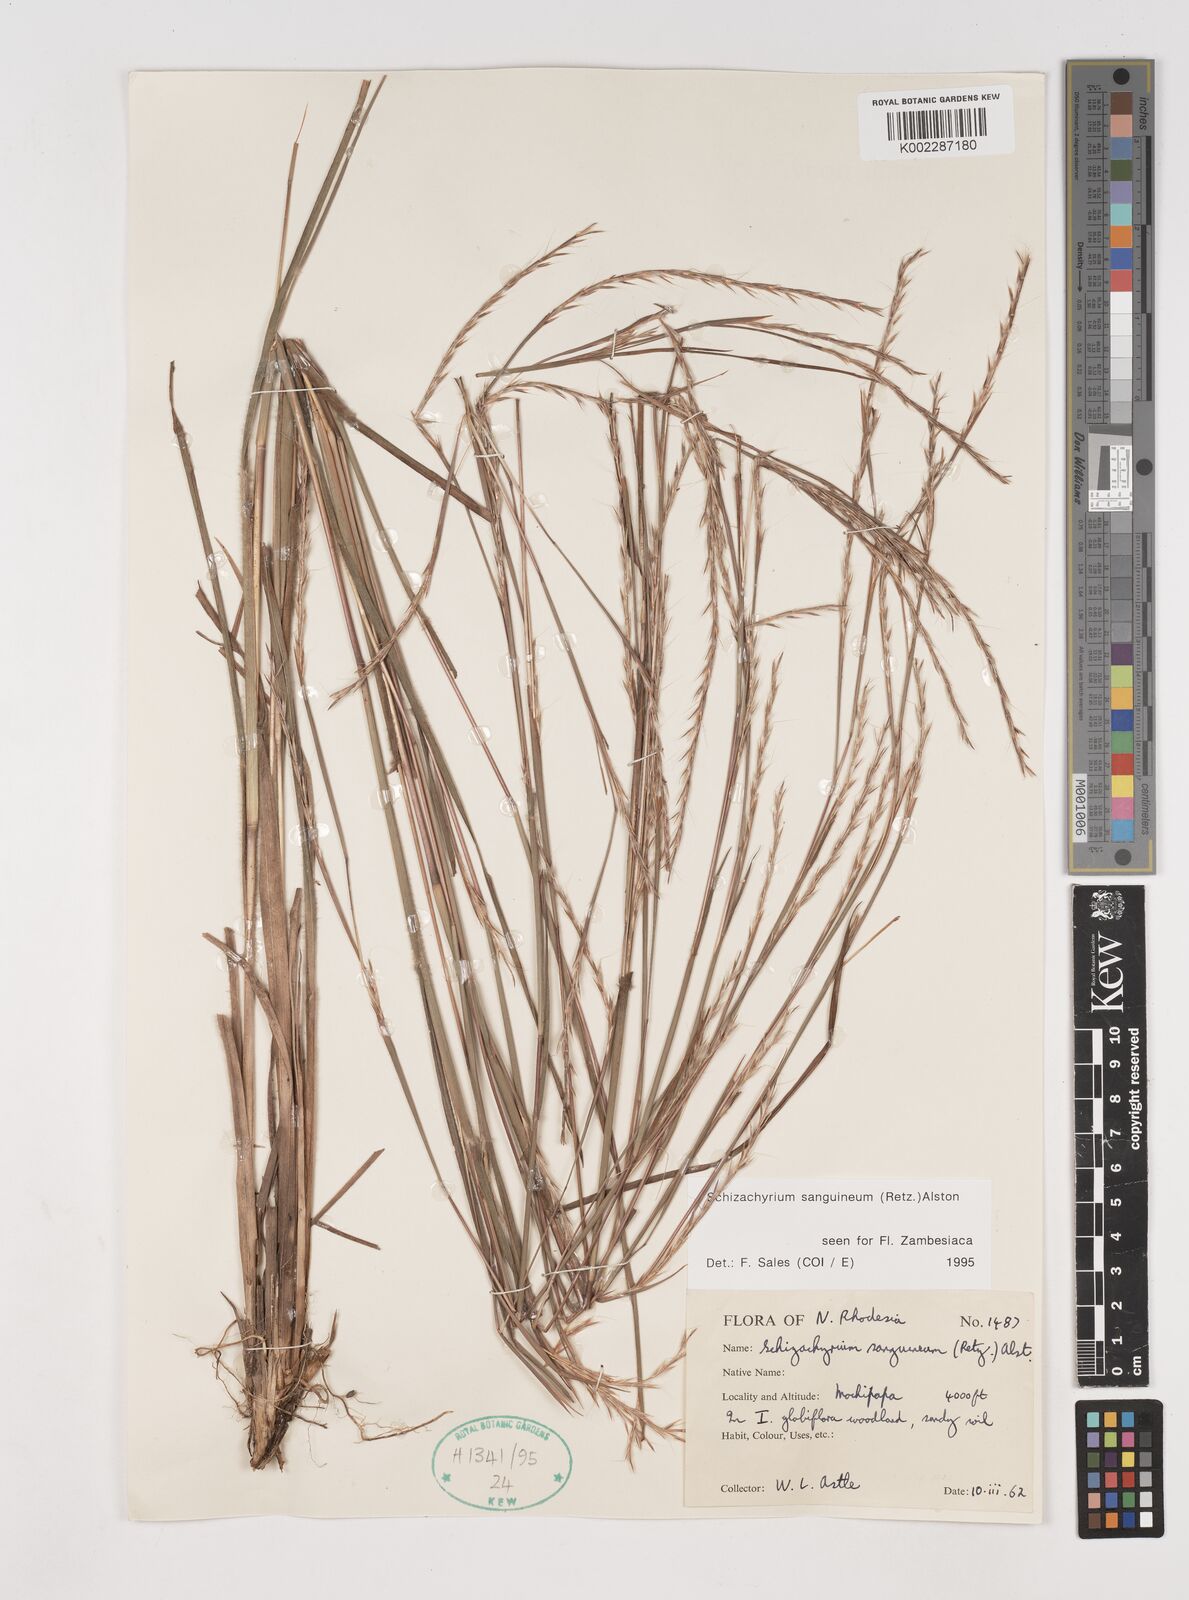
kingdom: Plantae
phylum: Tracheophyta
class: Liliopsida
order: Poales
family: Poaceae
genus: Schizachyrium
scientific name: Schizachyrium sanguineum
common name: Crimson bluestem
